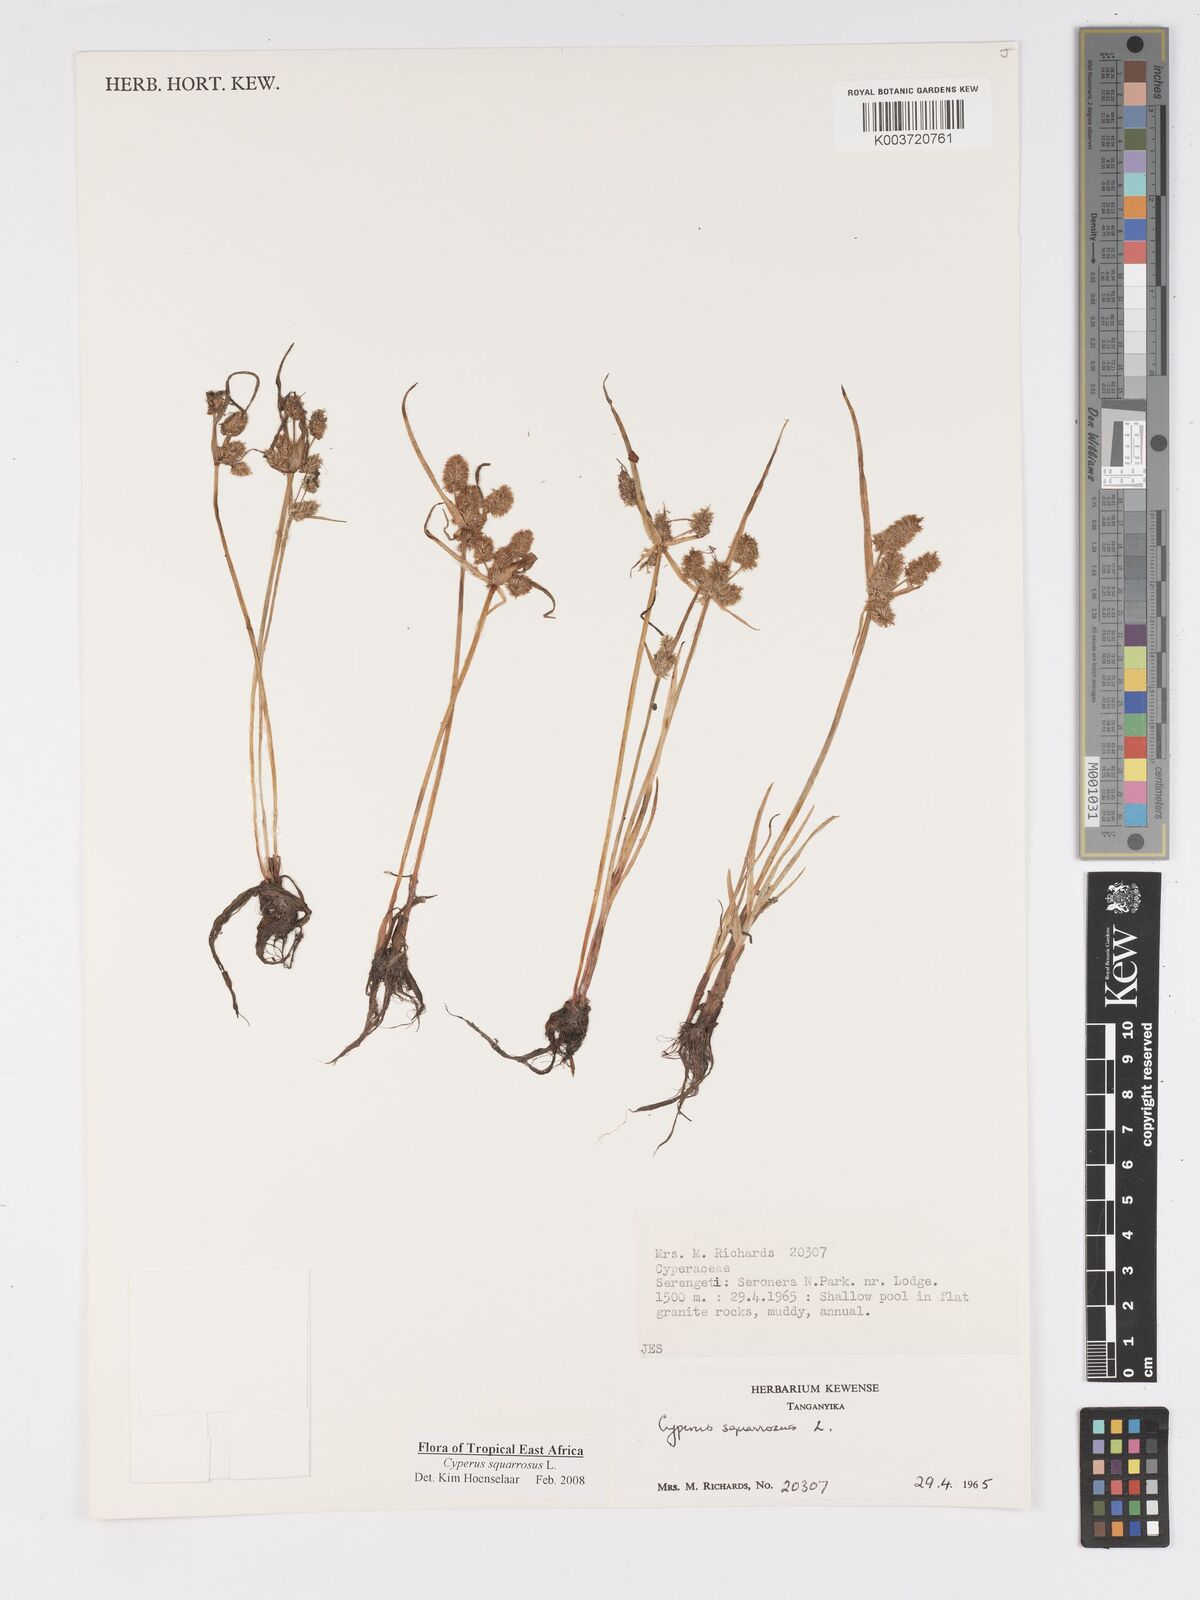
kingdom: Plantae
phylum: Tracheophyta
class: Liliopsida
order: Poales
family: Cyperaceae
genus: Cyperus
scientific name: Cyperus squarrosus
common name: Awned cyperus
